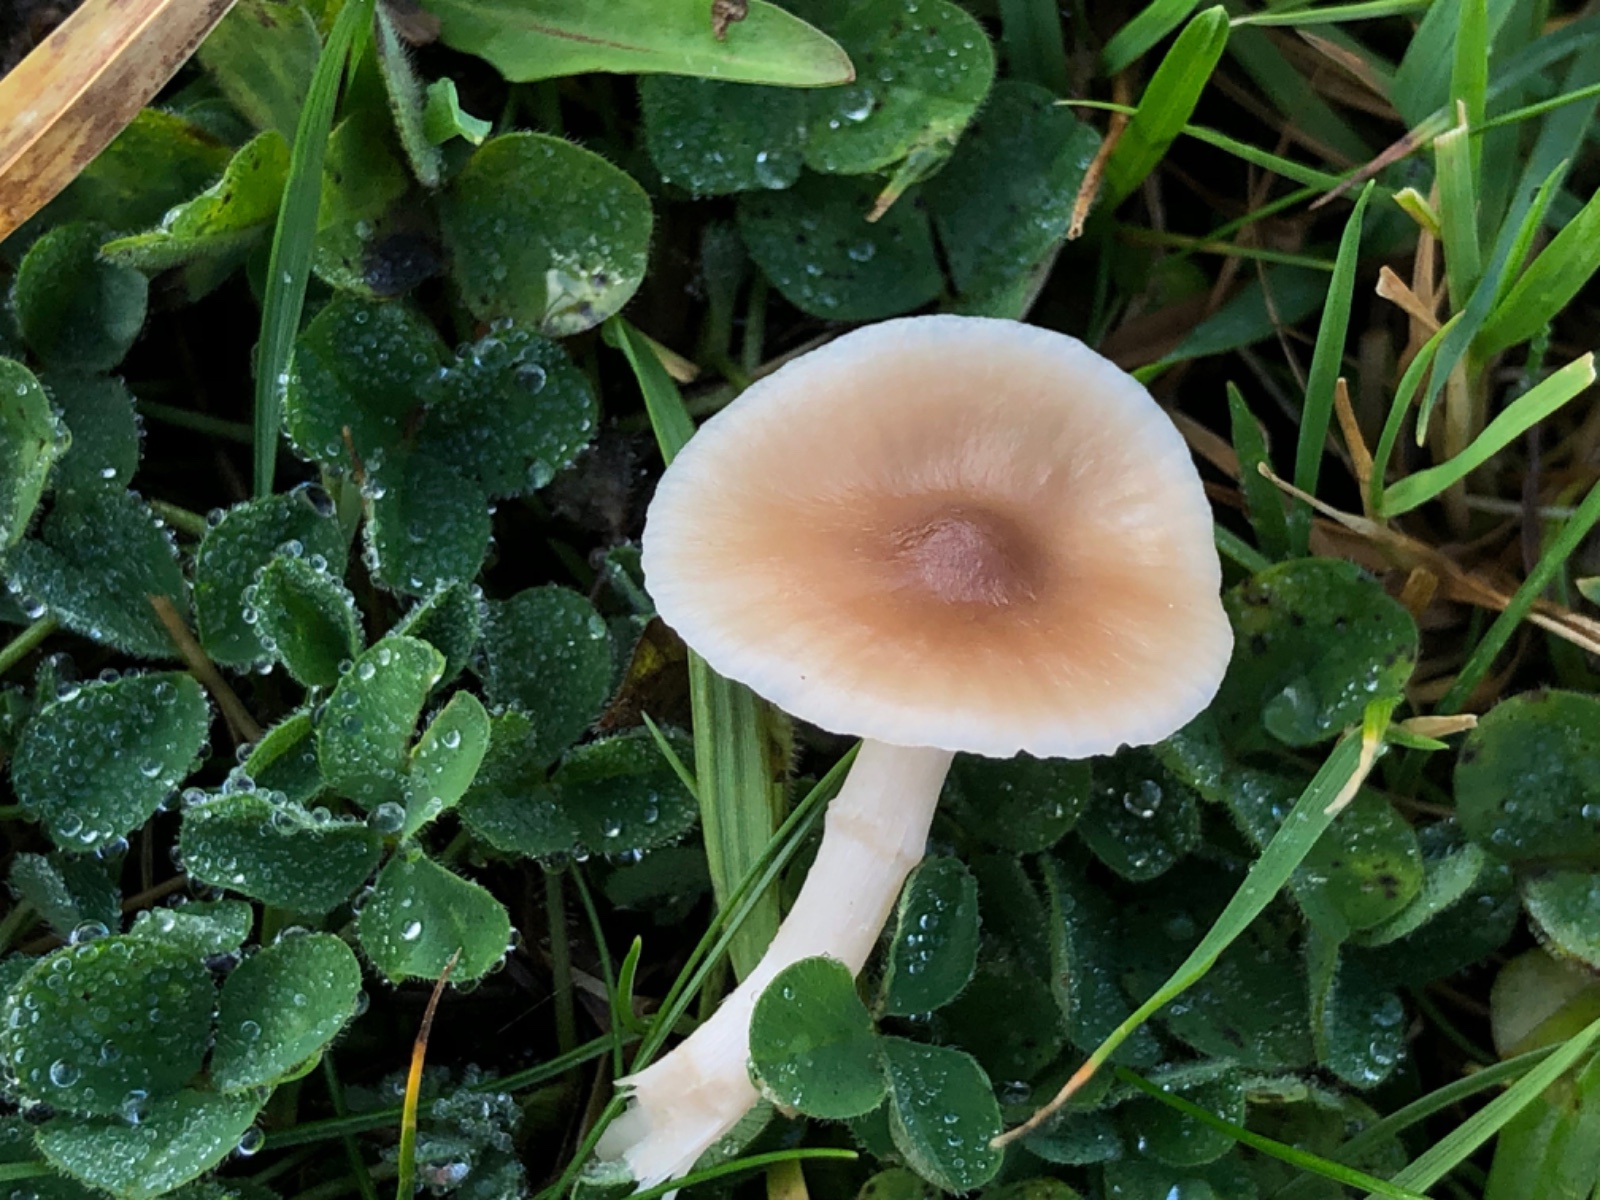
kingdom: Fungi
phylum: Basidiomycota
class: Agaricomycetes
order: Agaricales
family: Hygrophoraceae
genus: Cuphophyllus
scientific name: Cuphophyllus
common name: vokshat
